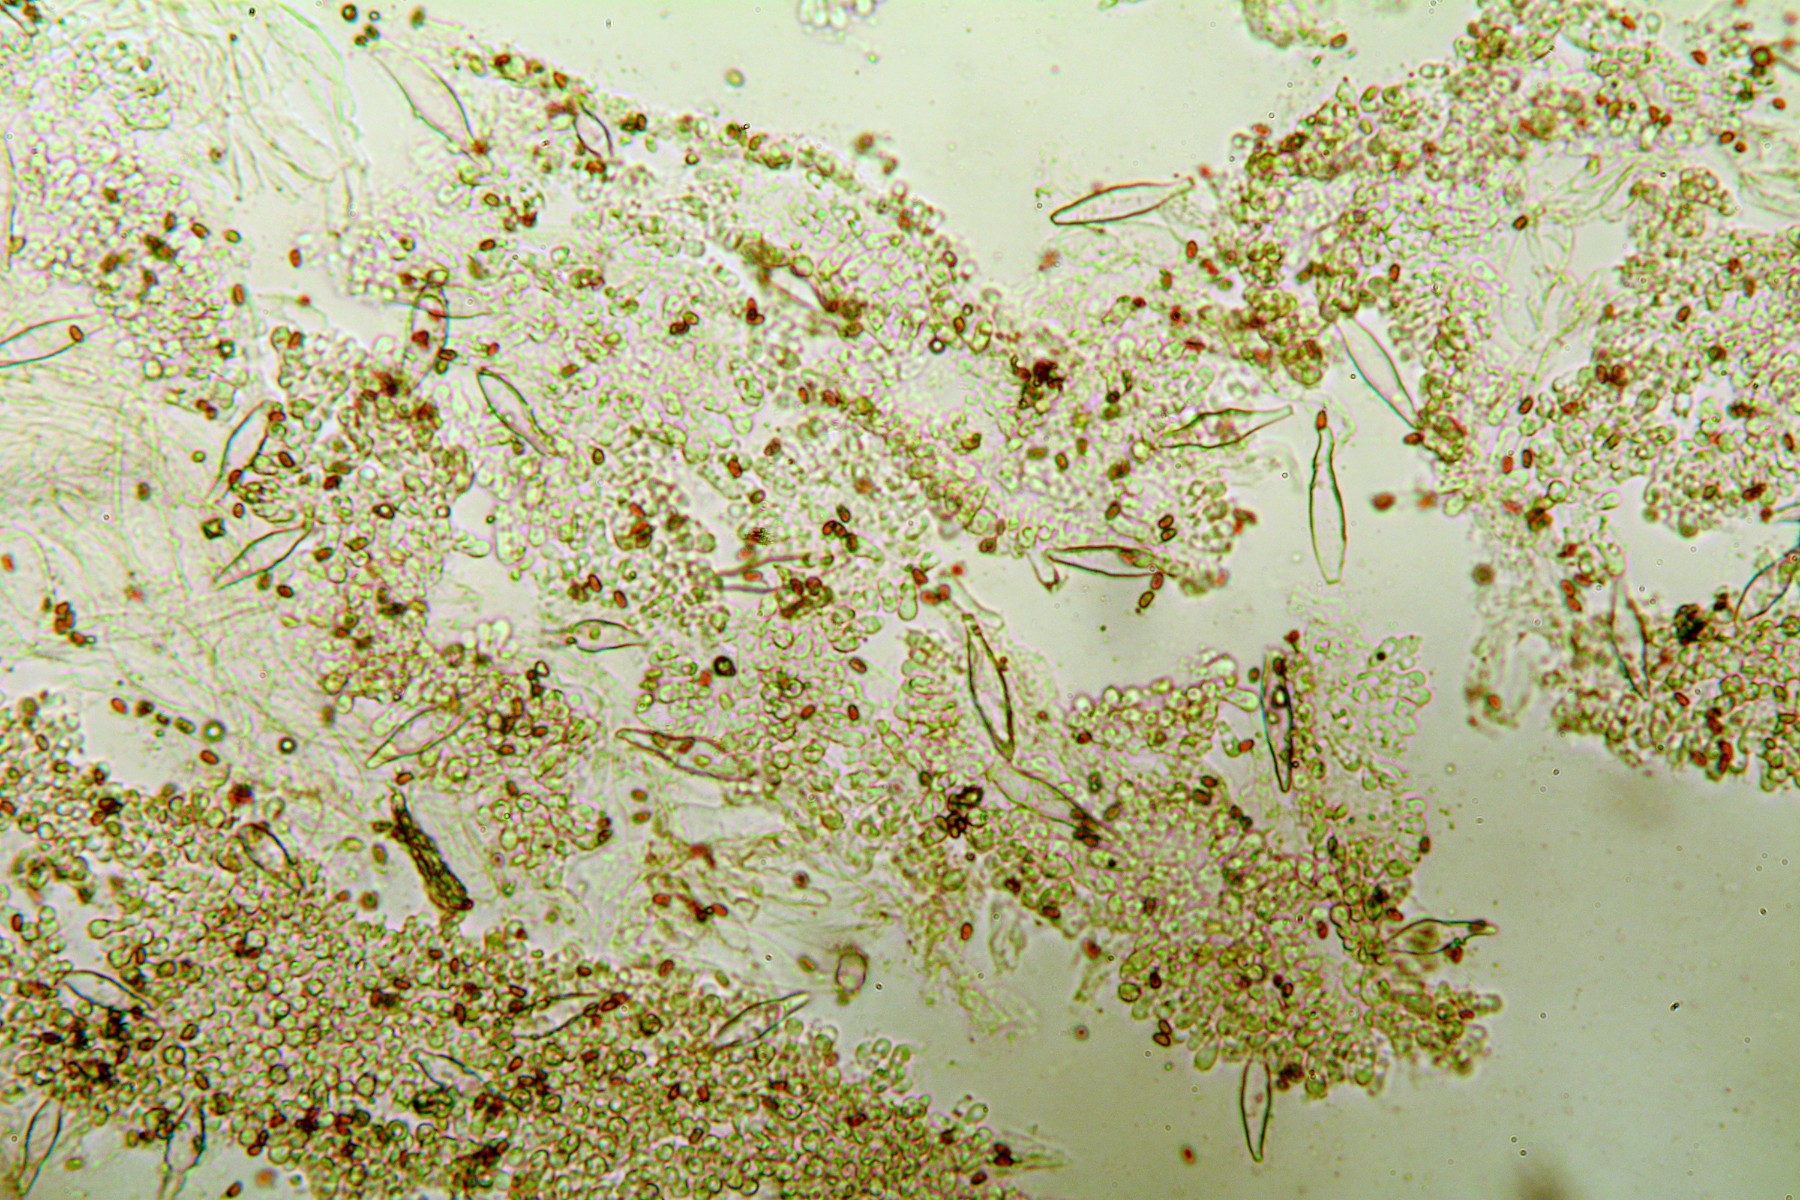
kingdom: Fungi
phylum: Basidiomycota
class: Agaricomycetes
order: Agaricales
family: Psathyrellaceae
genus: Psathyrella
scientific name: Psathyrella spintrigeroides
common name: tandet mørkhat
